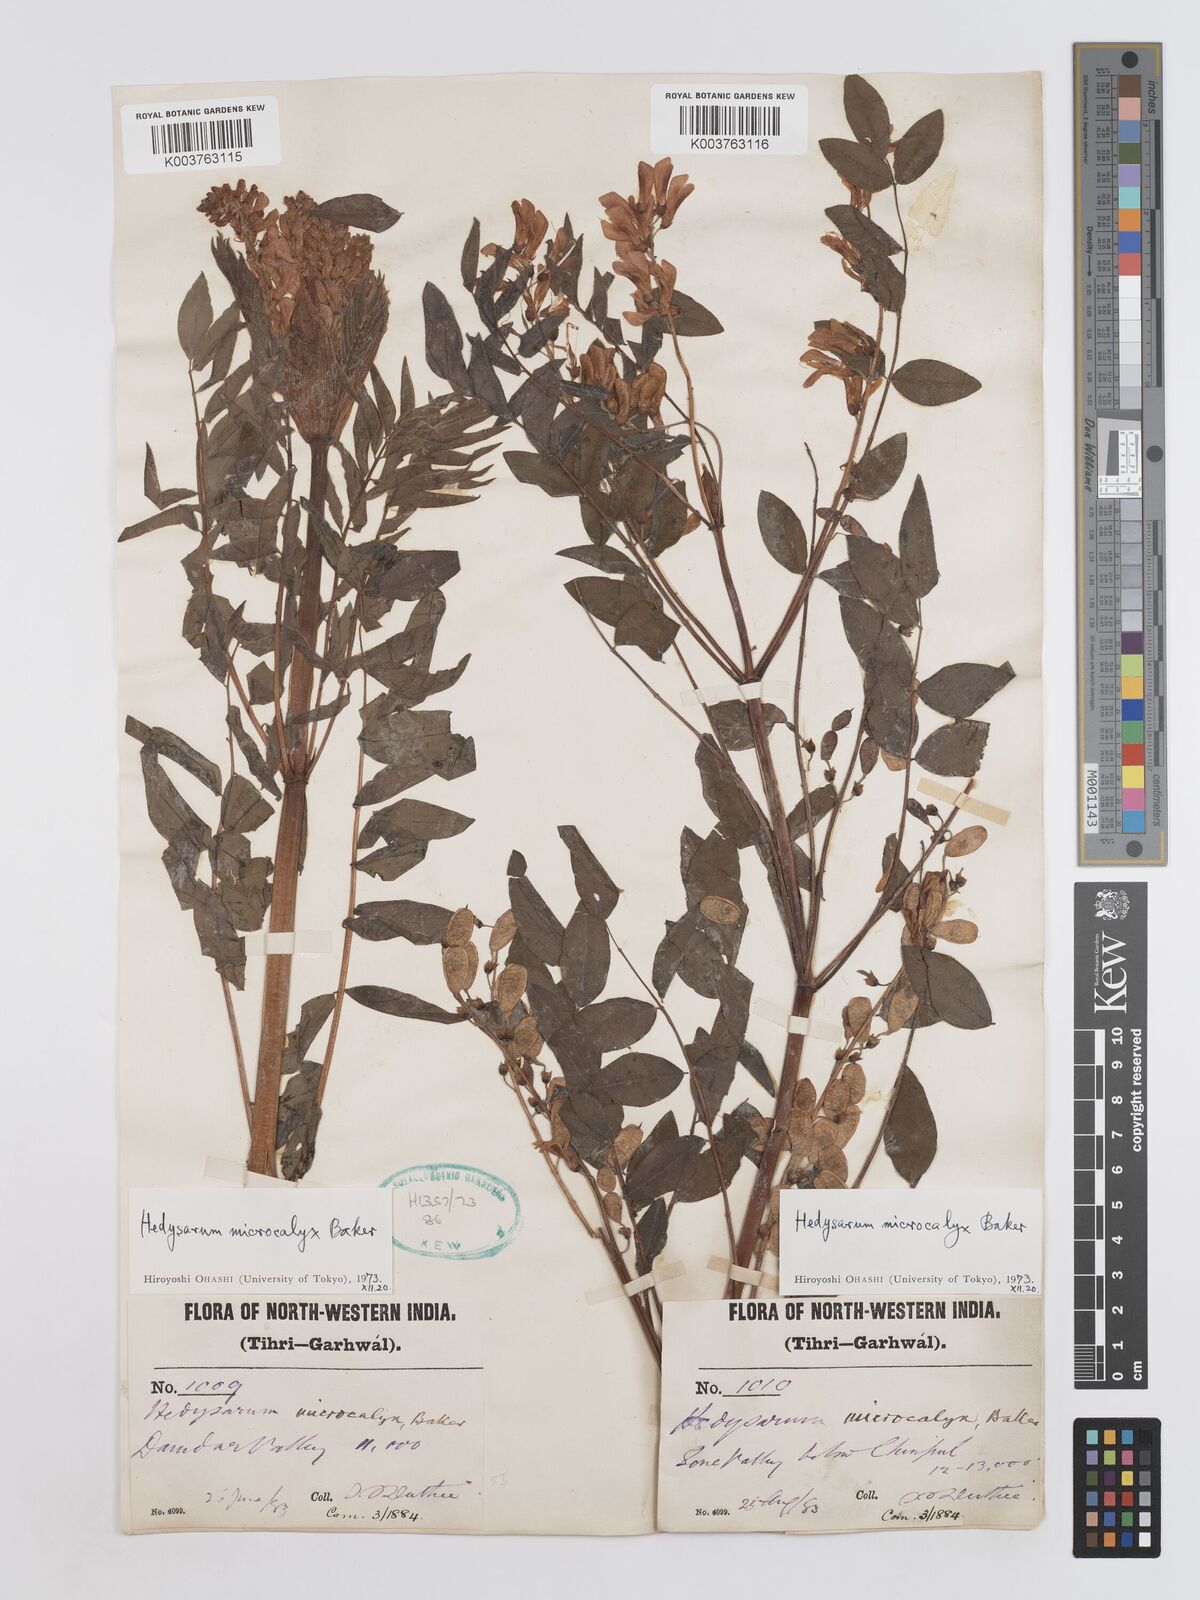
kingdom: Plantae
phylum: Tracheophyta
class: Magnoliopsida
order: Fabales
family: Fabaceae
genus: Hedysarum
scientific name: Hedysarum microcalyx
